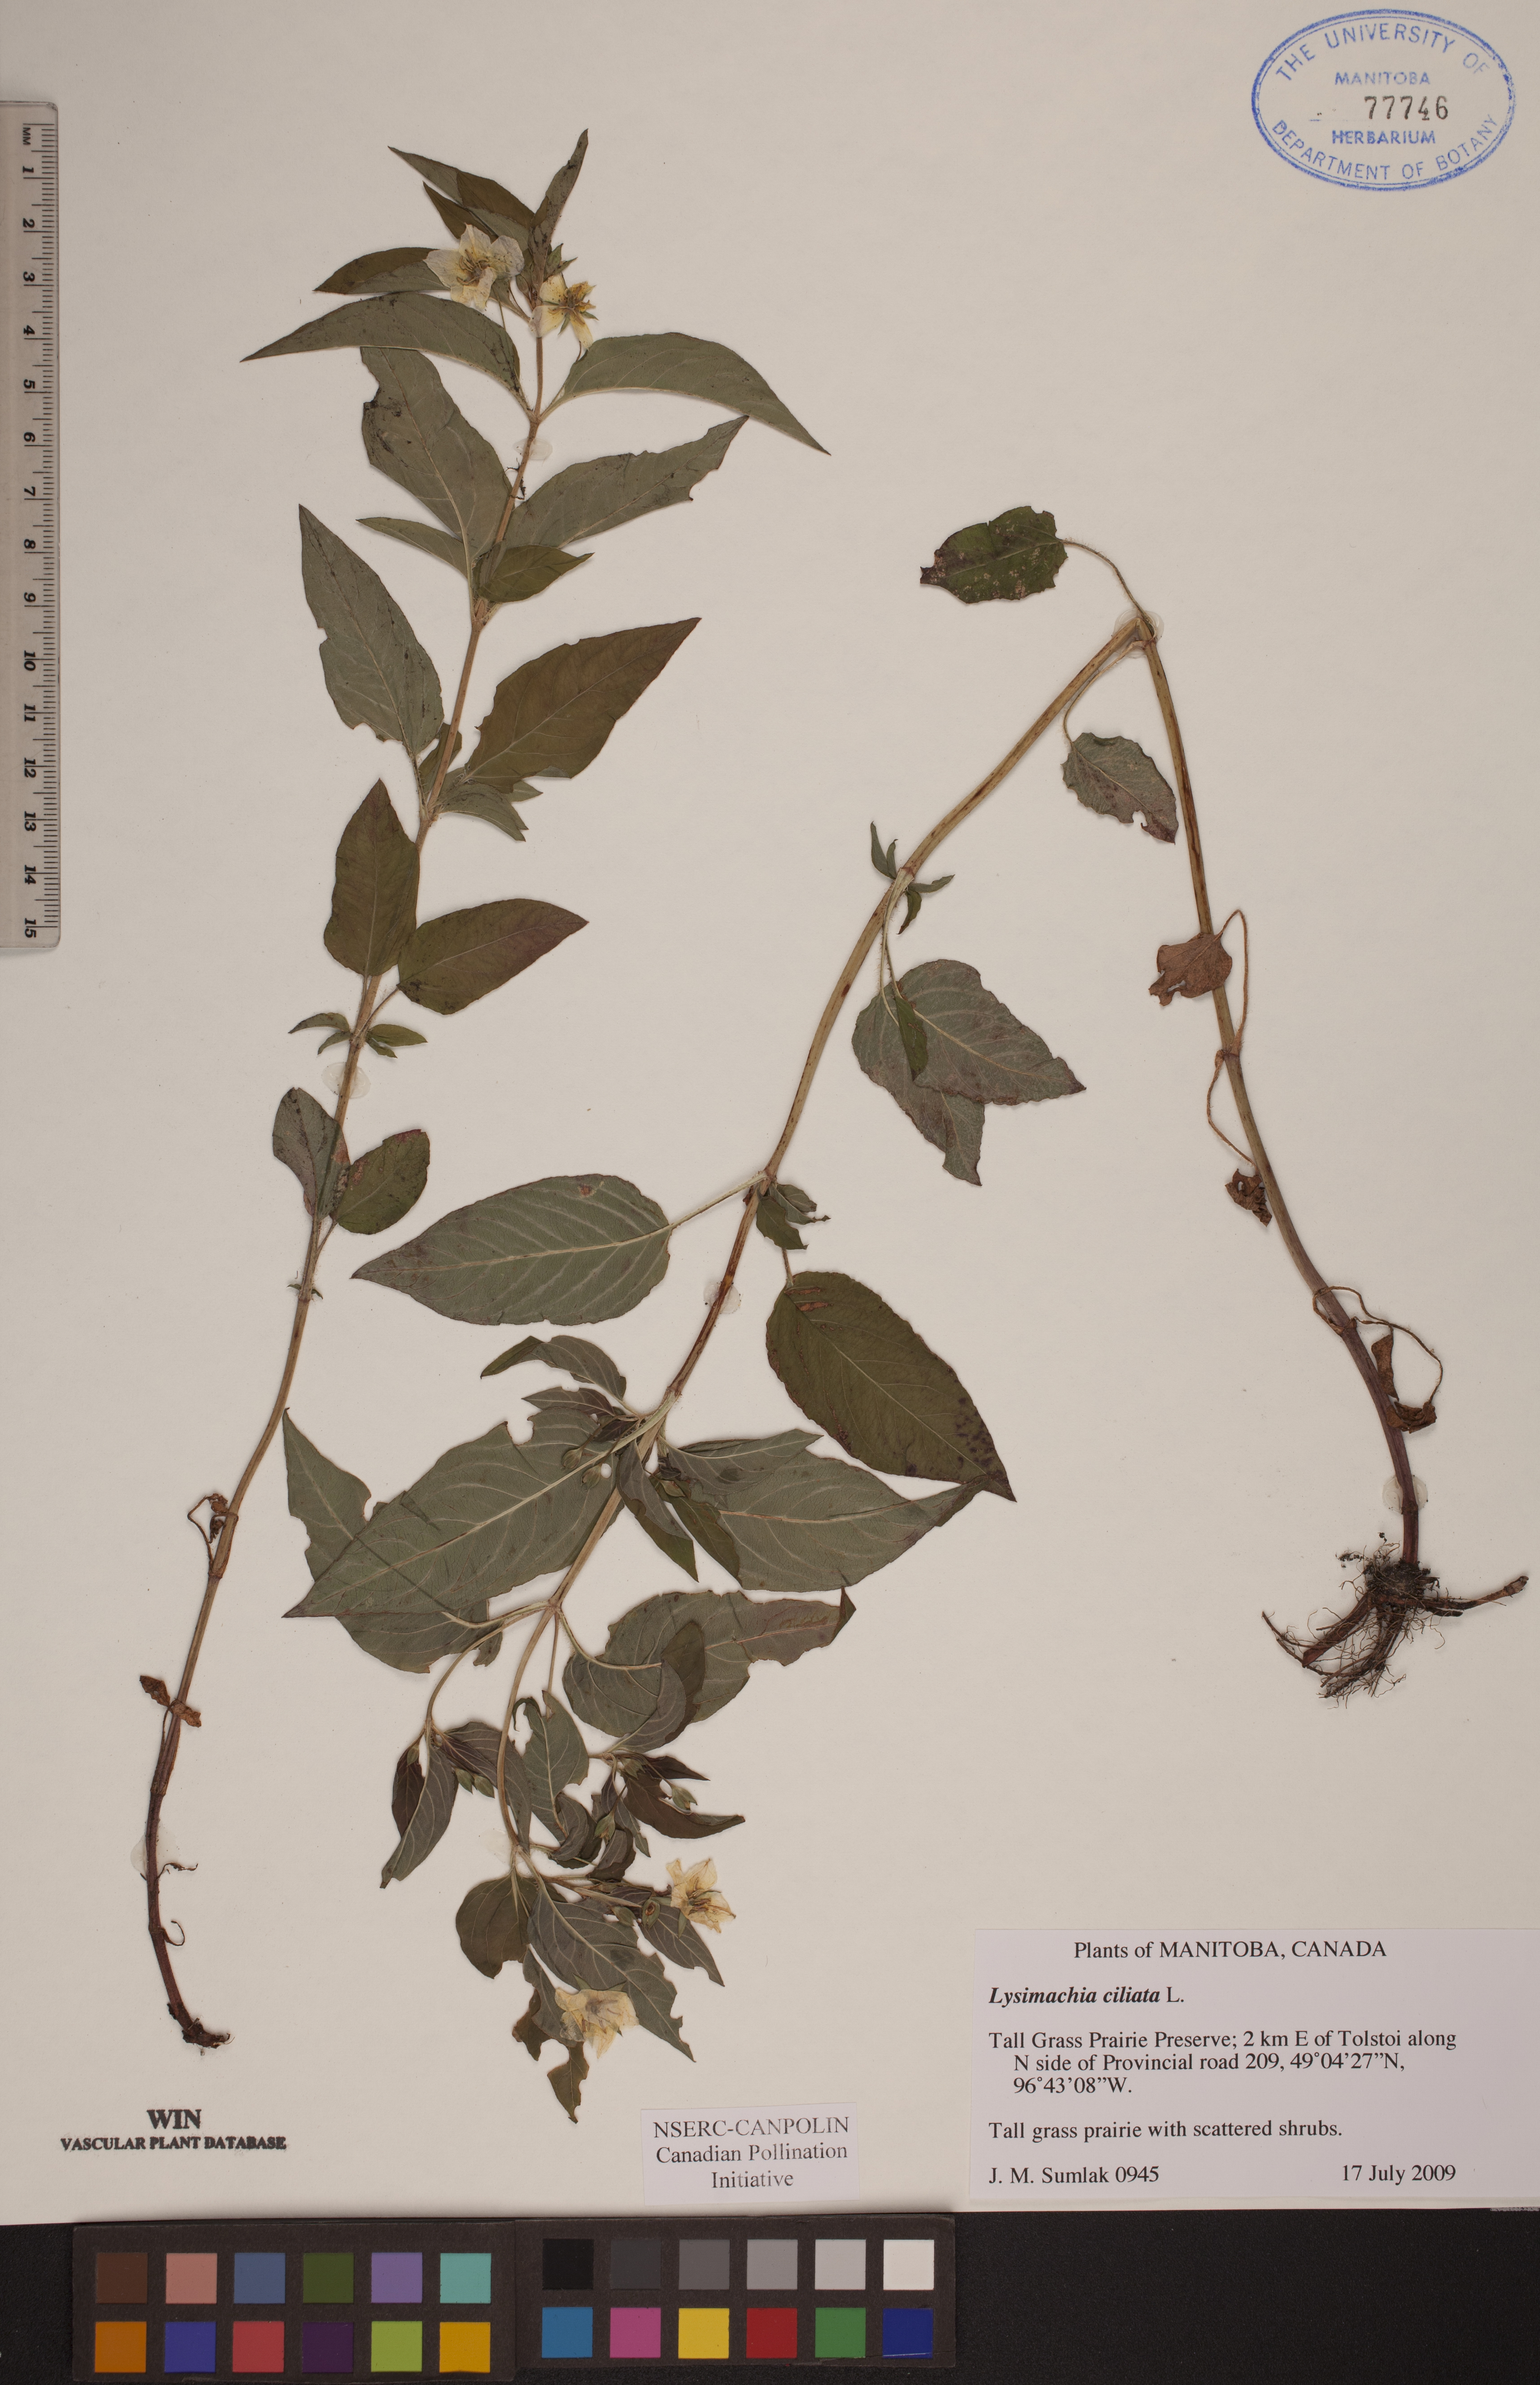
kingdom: Plantae
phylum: Tracheophyta
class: Magnoliopsida
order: Ericales
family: Primulaceae
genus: Lysimachia
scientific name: Lysimachia ciliata
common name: Fringed loosestrife
